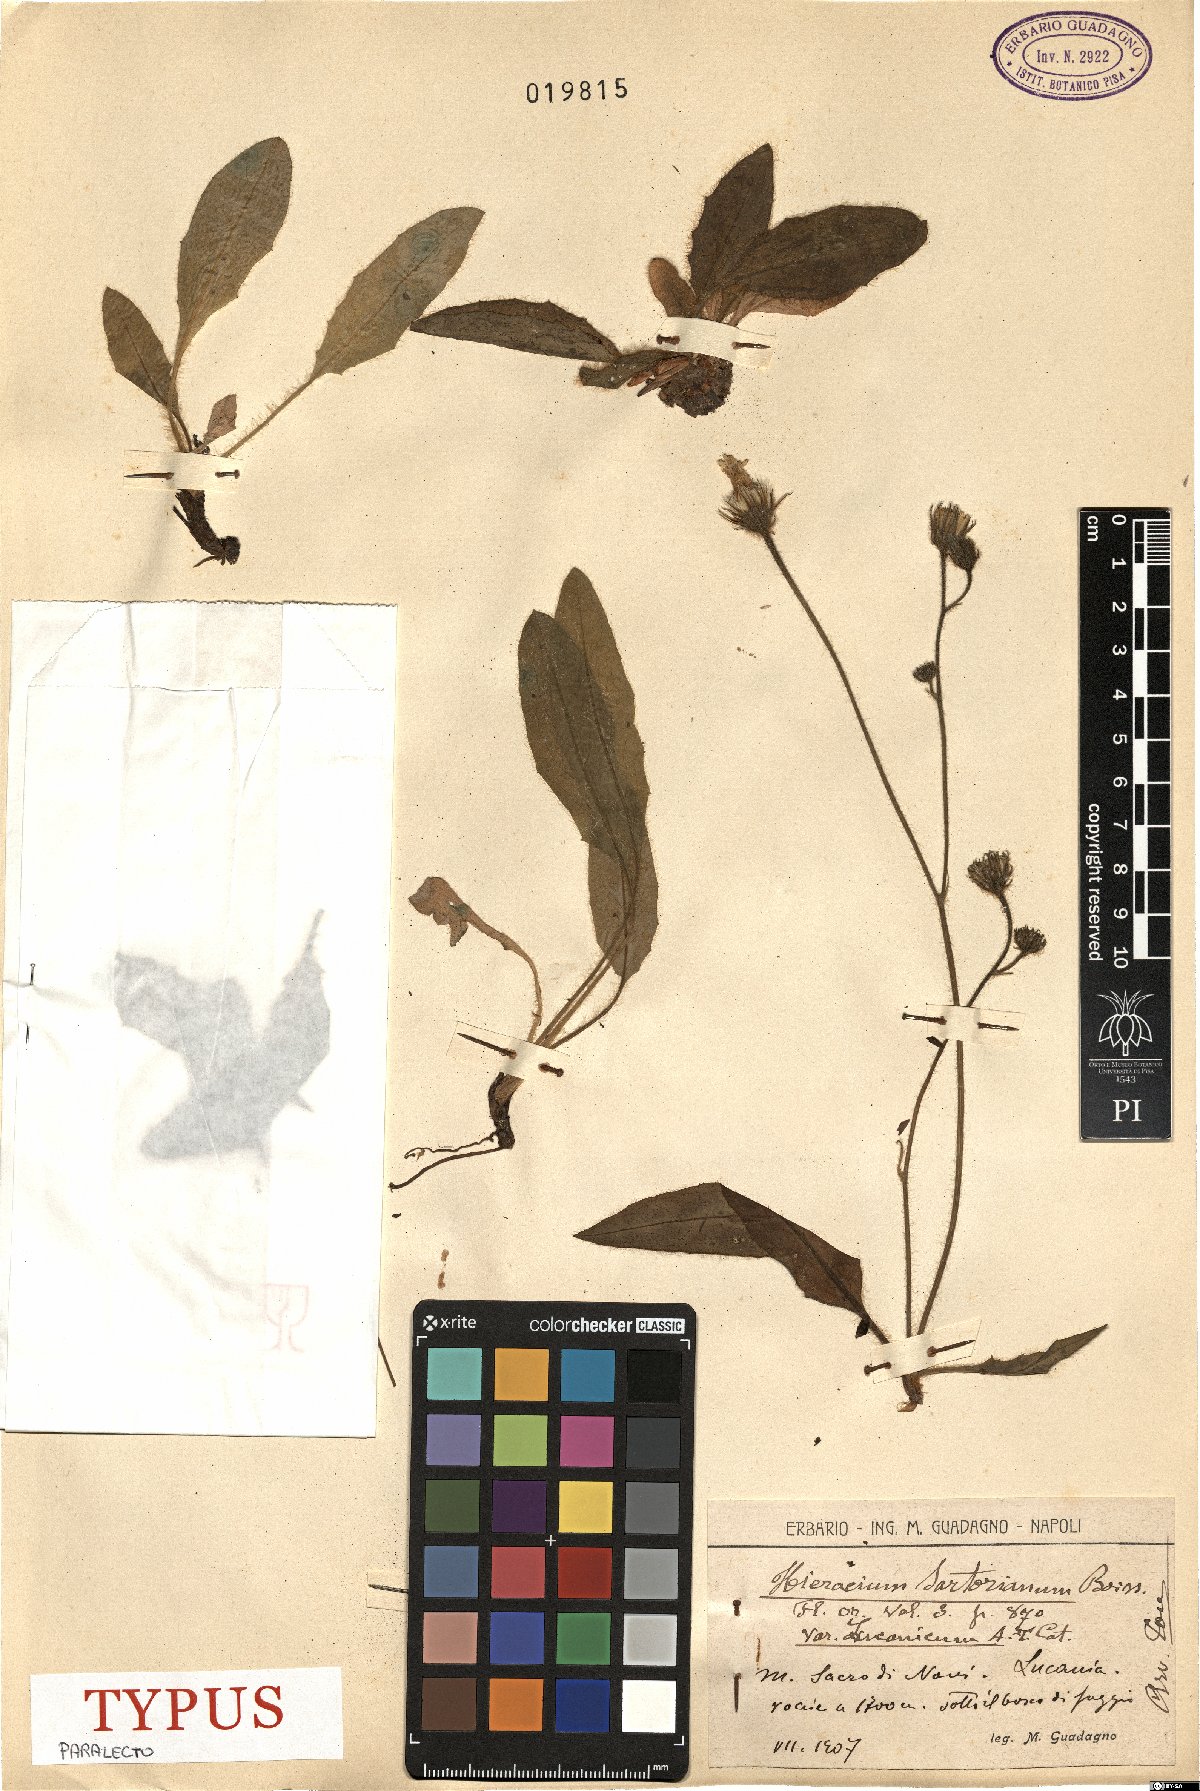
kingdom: Plantae
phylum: Tracheophyta
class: Magnoliopsida
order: Asterales
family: Asteraceae
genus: Hieracium
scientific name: Hieracium hypochoeroides
